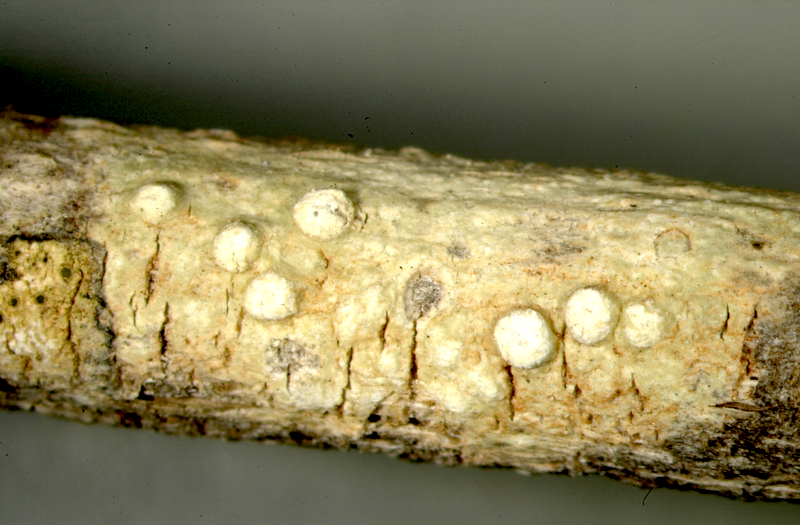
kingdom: Fungi
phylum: Ascomycota
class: Lecanoromycetes
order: Teloschistales
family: Teloschistaceae
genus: Caloplaca
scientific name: Caloplaca
